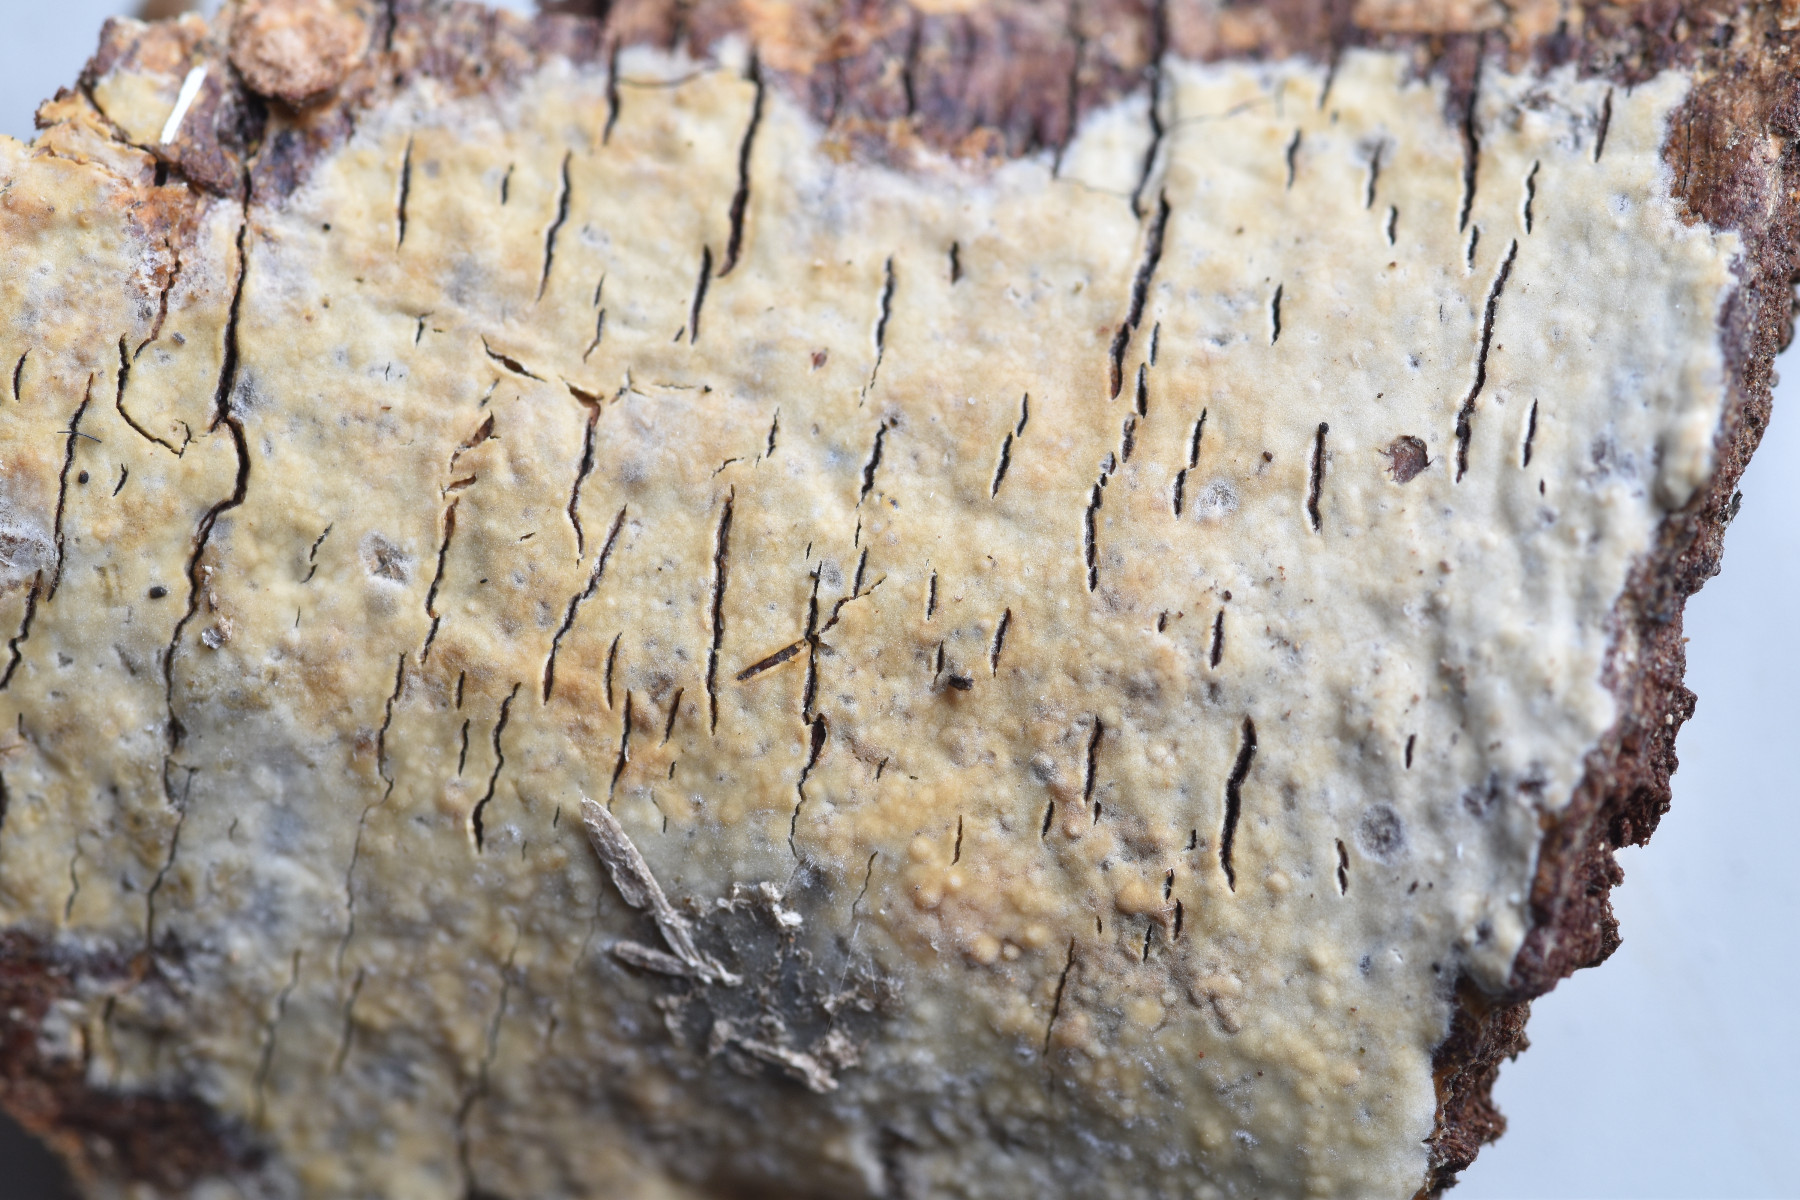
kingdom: Fungi
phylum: Basidiomycota
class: Agaricomycetes
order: Agaricales
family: Radulomycetaceae
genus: Radulomyces
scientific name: Radulomyces confluens
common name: glat naftalinskind
